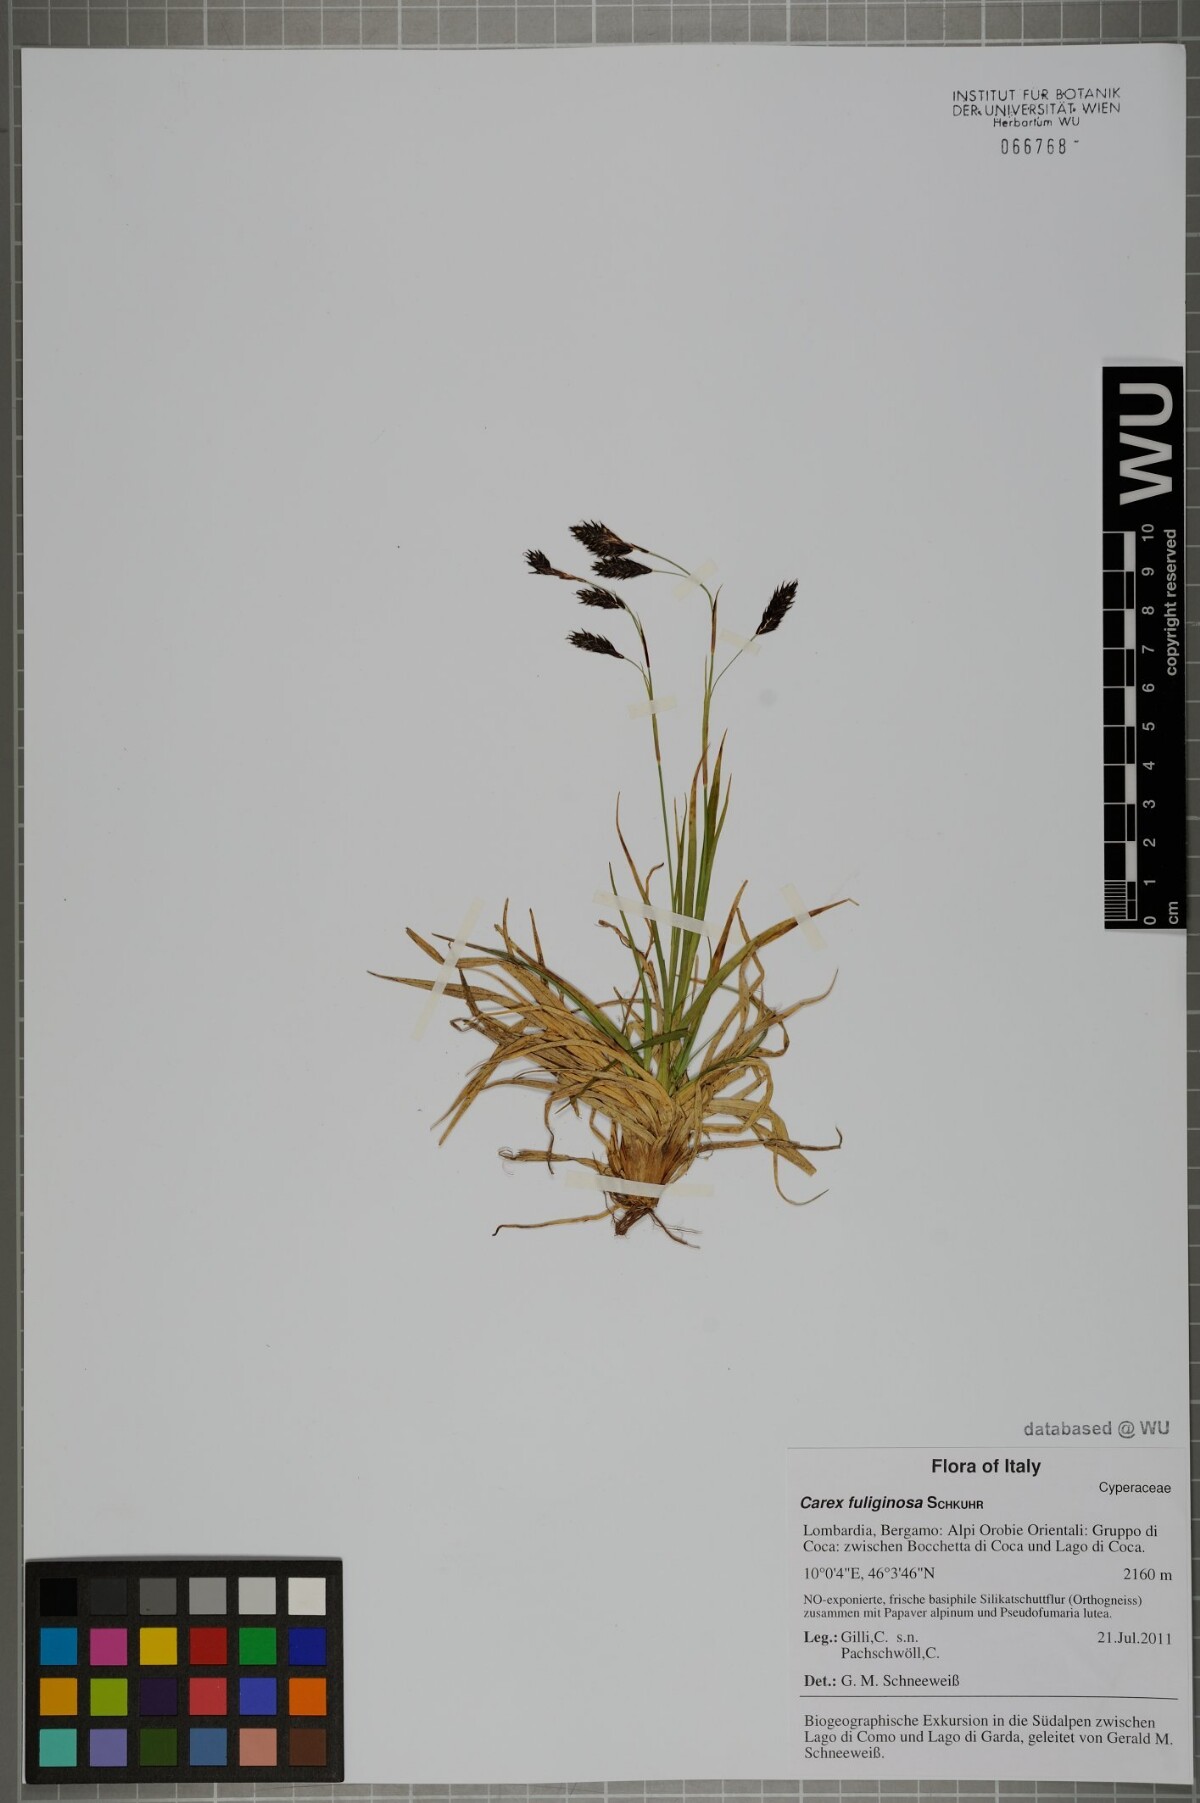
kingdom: Plantae
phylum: Tracheophyta
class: Liliopsida
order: Poales
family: Cyperaceae
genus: Carex
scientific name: Carex fuliginosa
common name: Few-flowered sedge
